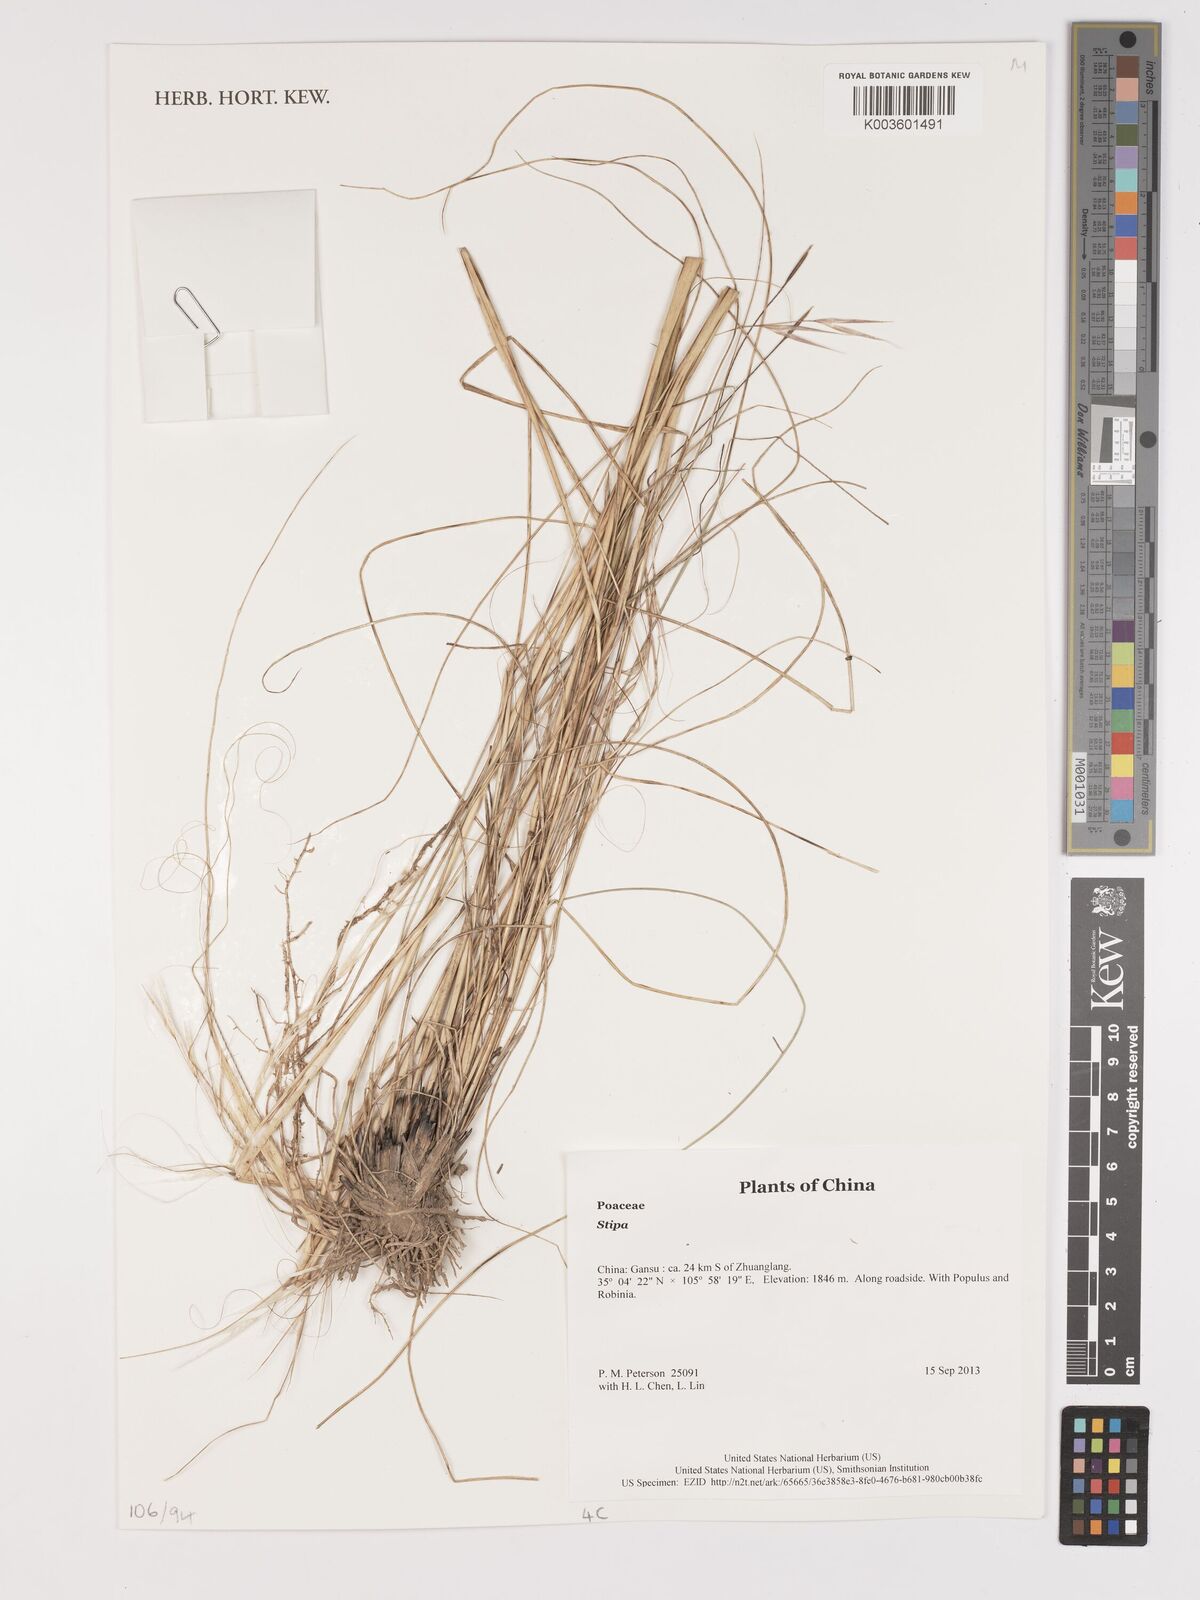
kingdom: Plantae
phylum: Tracheophyta
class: Liliopsida
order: Poales
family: Poaceae
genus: Stipa
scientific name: Stipa
